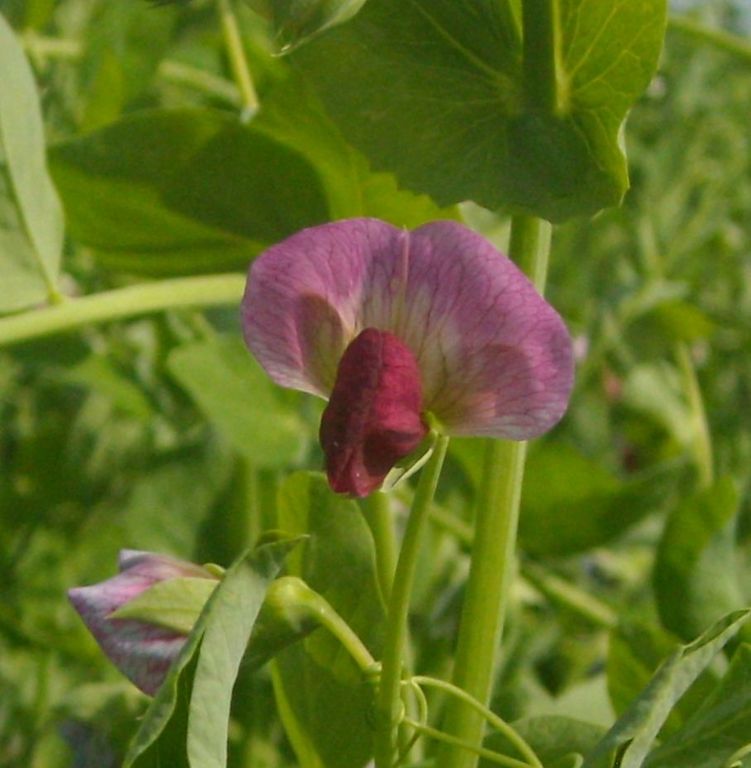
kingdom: Plantae
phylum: Tracheophyta
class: Magnoliopsida
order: Fabales
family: Fabaceae
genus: Lathyrus
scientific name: Lathyrus oleraceus
